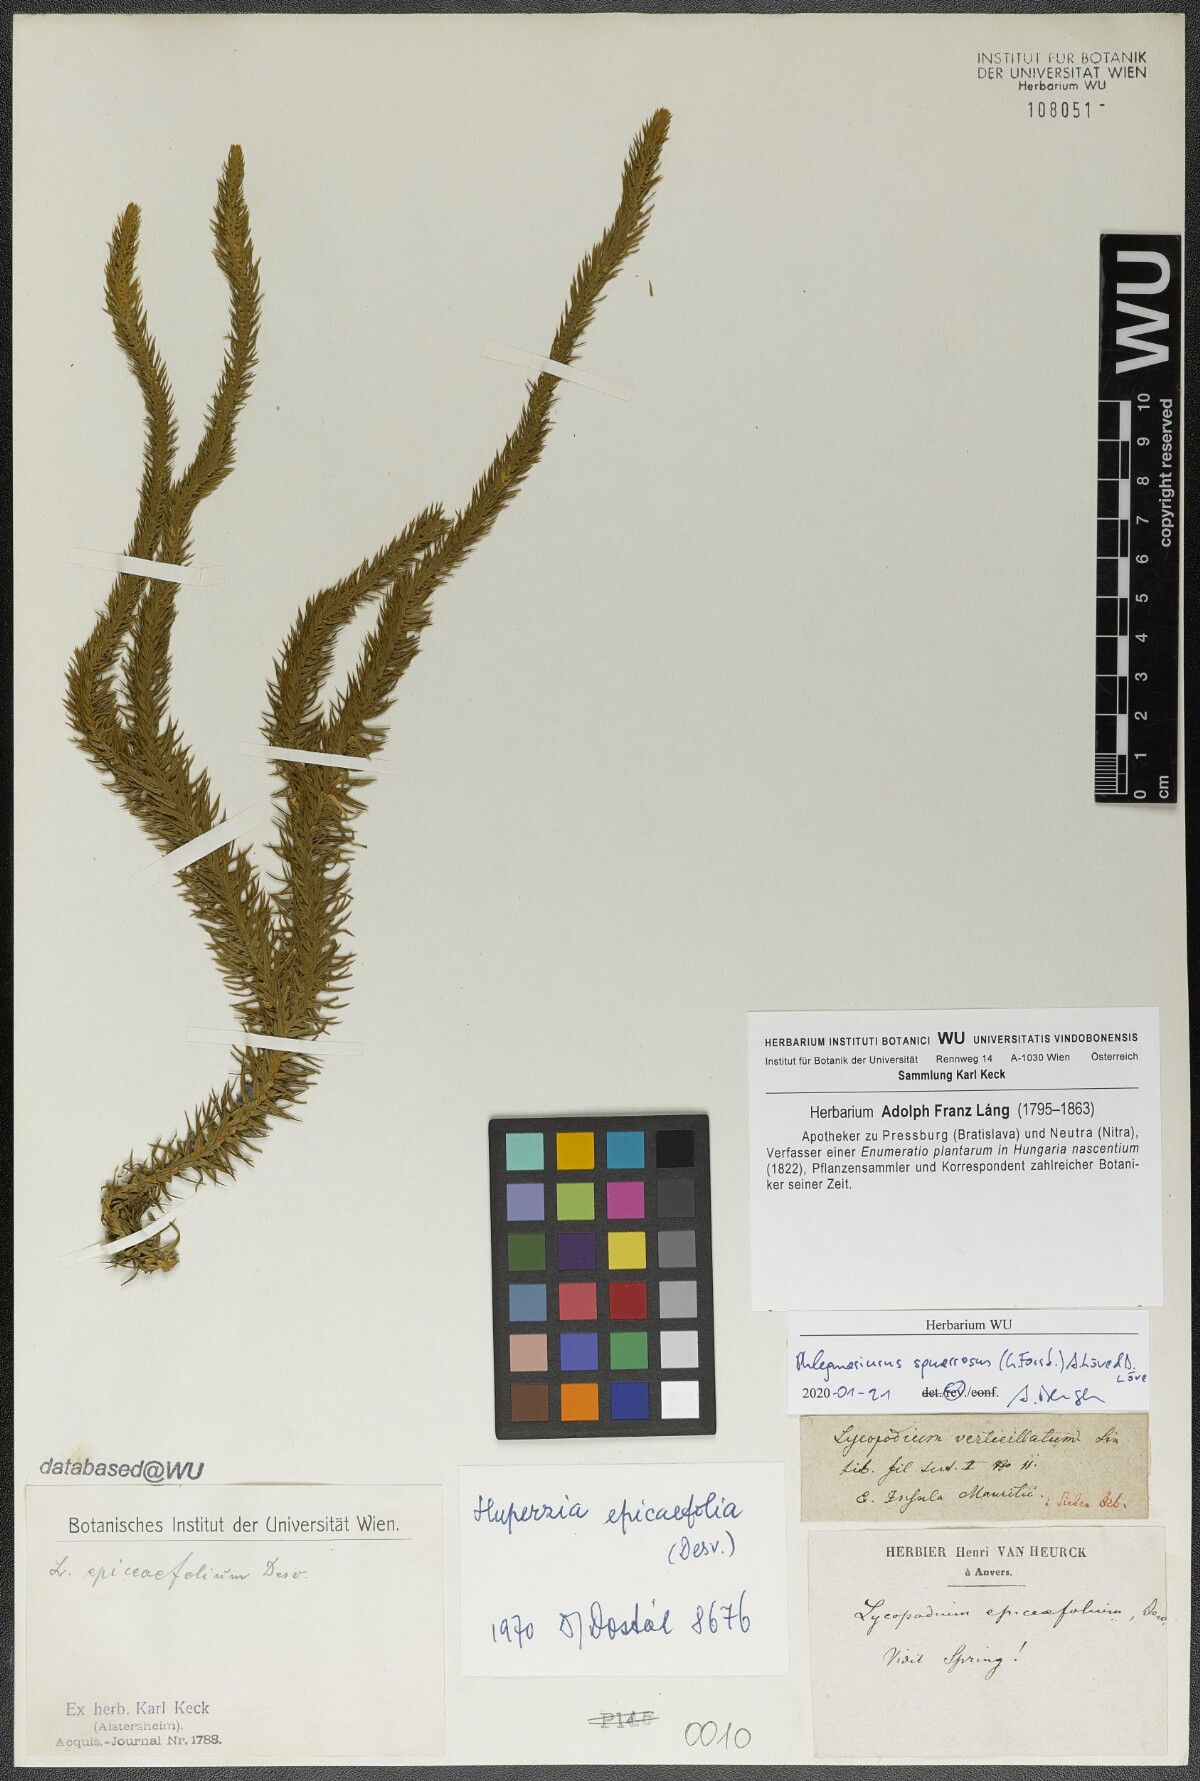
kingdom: Plantae
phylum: Tracheophyta
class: Lycopodiopsida
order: Lycopodiales
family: Lycopodiaceae
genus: Phlegmariurus
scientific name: Phlegmariurus squarrosus
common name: Rock tassel-fern
